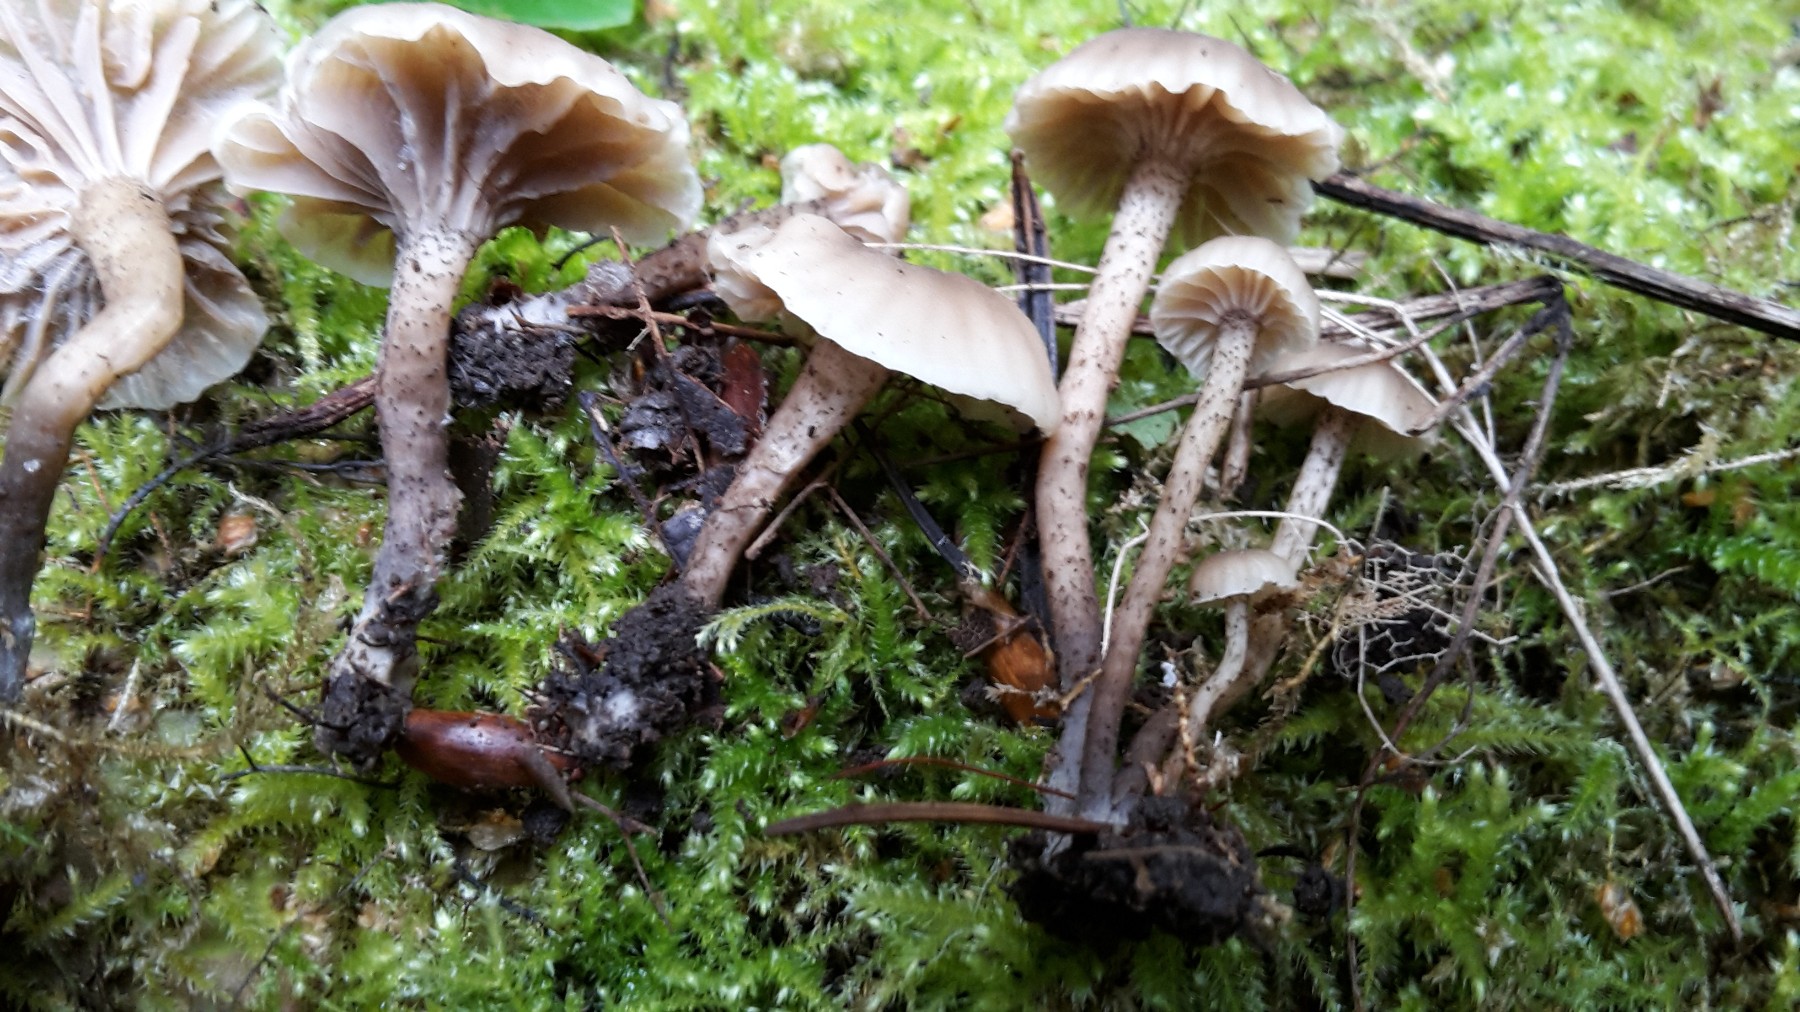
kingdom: Fungi
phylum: Basidiomycota
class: Agaricomycetes
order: Agaricales
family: Clavariaceae
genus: Hodophilus
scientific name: Hodophilus atropunctus
